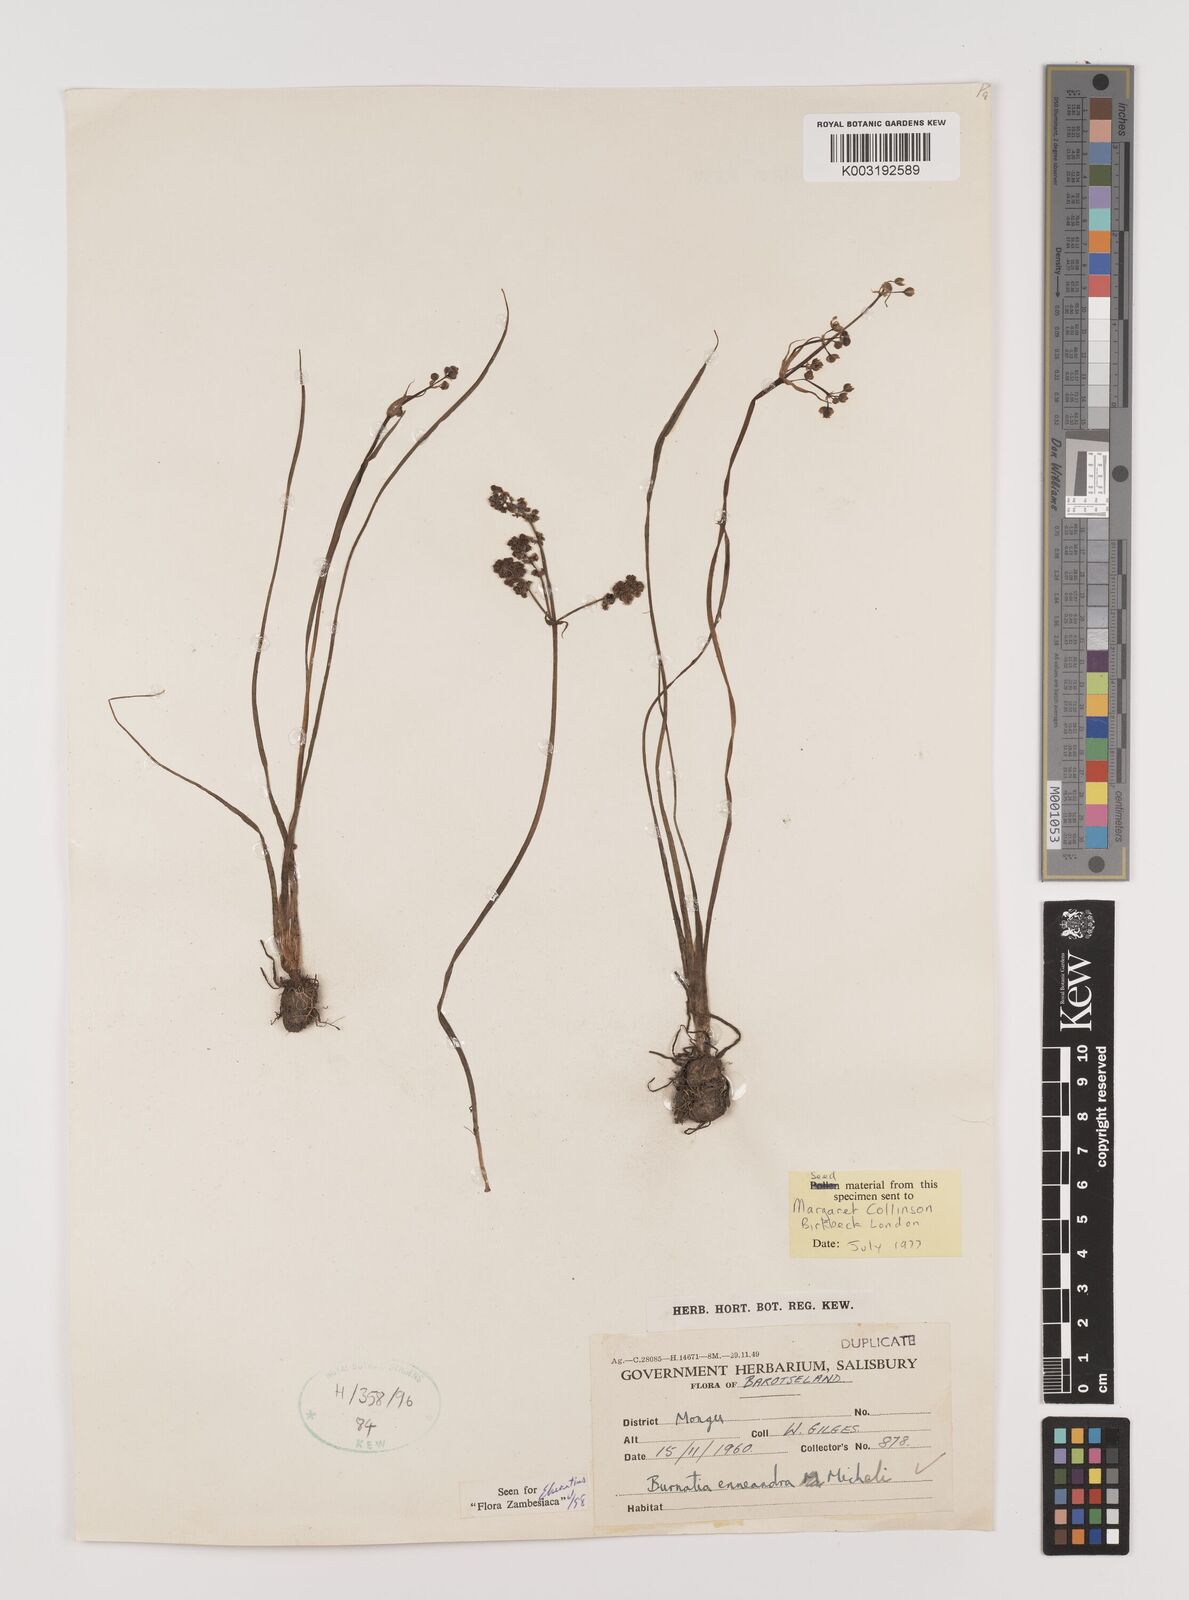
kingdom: Plantae
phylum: Tracheophyta
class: Liliopsida
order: Alismatales
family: Alismataceae
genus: Burnatia
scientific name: Burnatia enneandra
